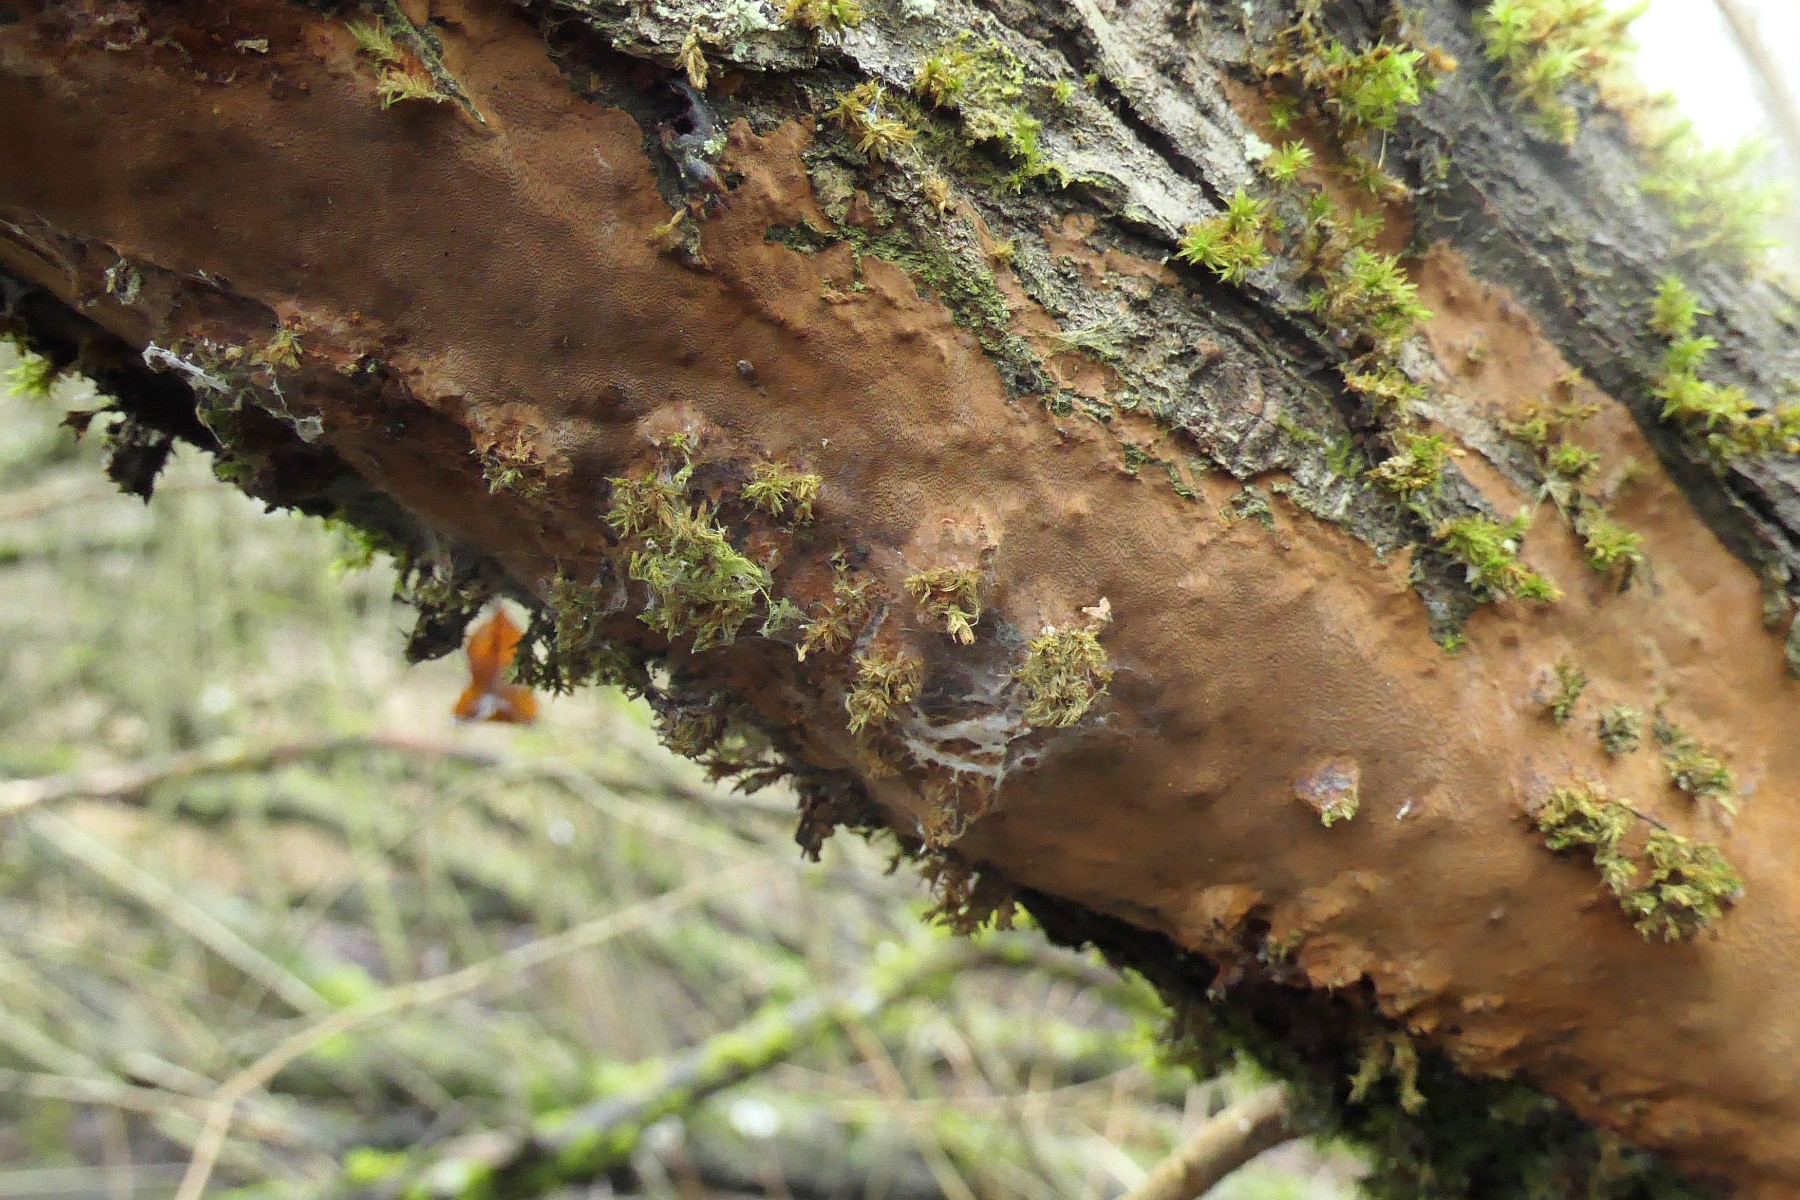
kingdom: Fungi
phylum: Basidiomycota
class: Agaricomycetes
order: Hymenochaetales
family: Hymenochaetaceae
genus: Fuscoporia
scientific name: Fuscoporia ferruginosa
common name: rustbrun ildporesvamp
